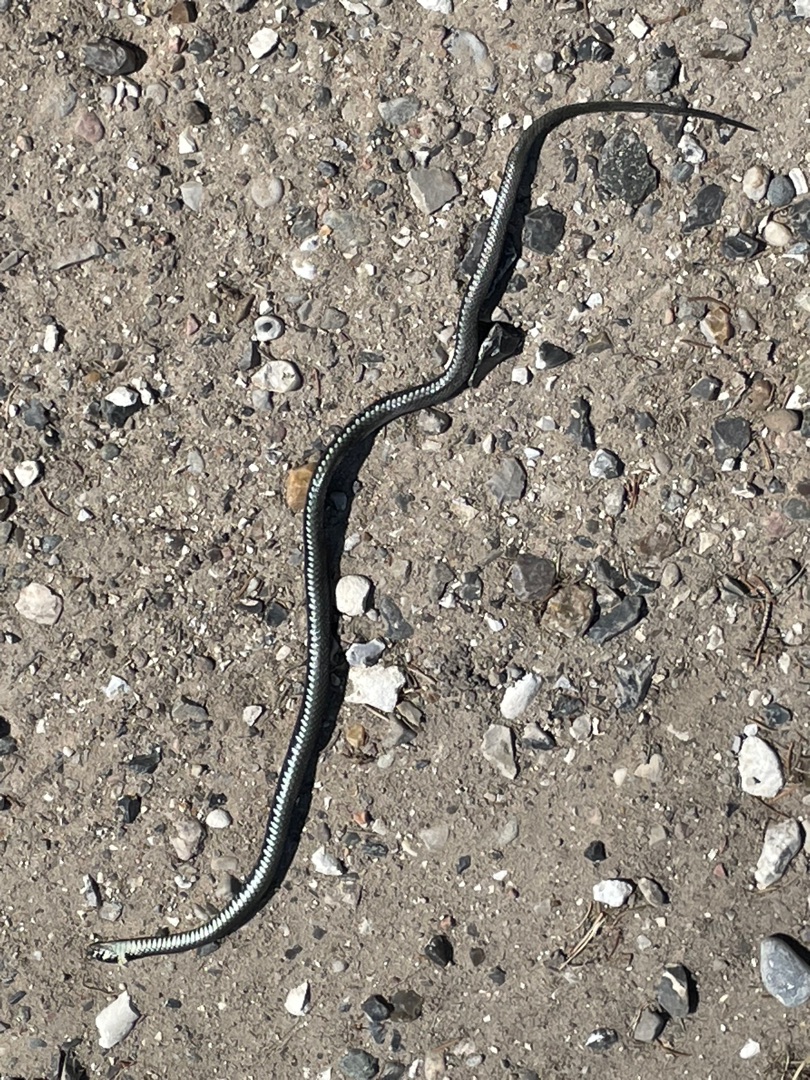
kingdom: Animalia
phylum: Chordata
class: Squamata
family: Colubridae
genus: Natrix
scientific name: Natrix natrix
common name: Snog
